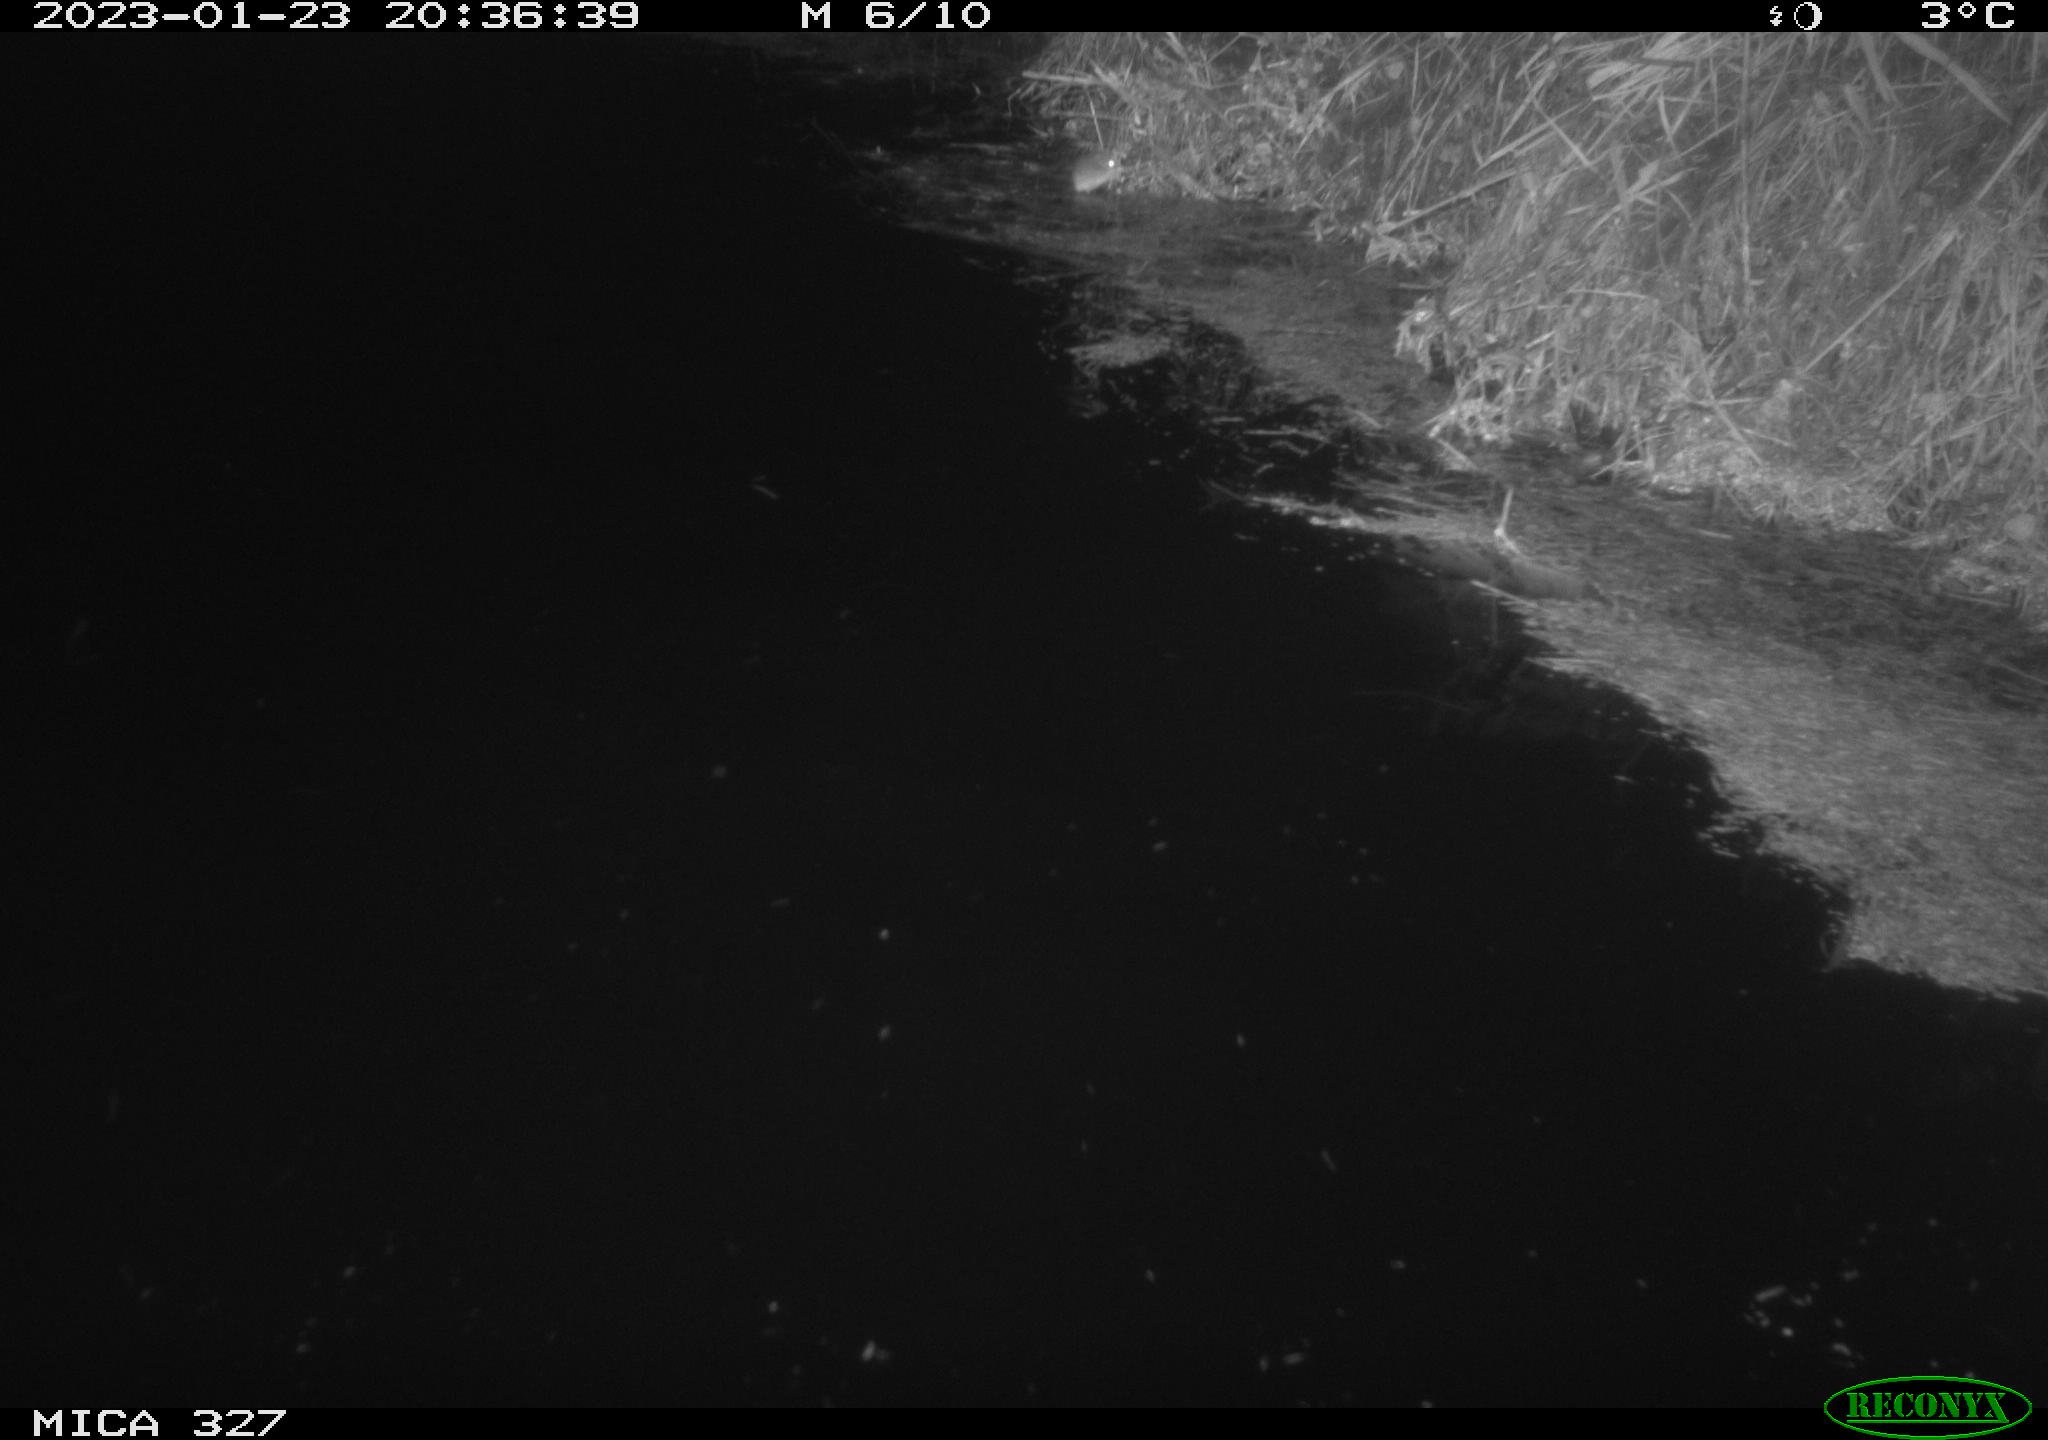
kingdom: Animalia
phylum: Chordata
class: Mammalia
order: Rodentia
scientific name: Rodentia
